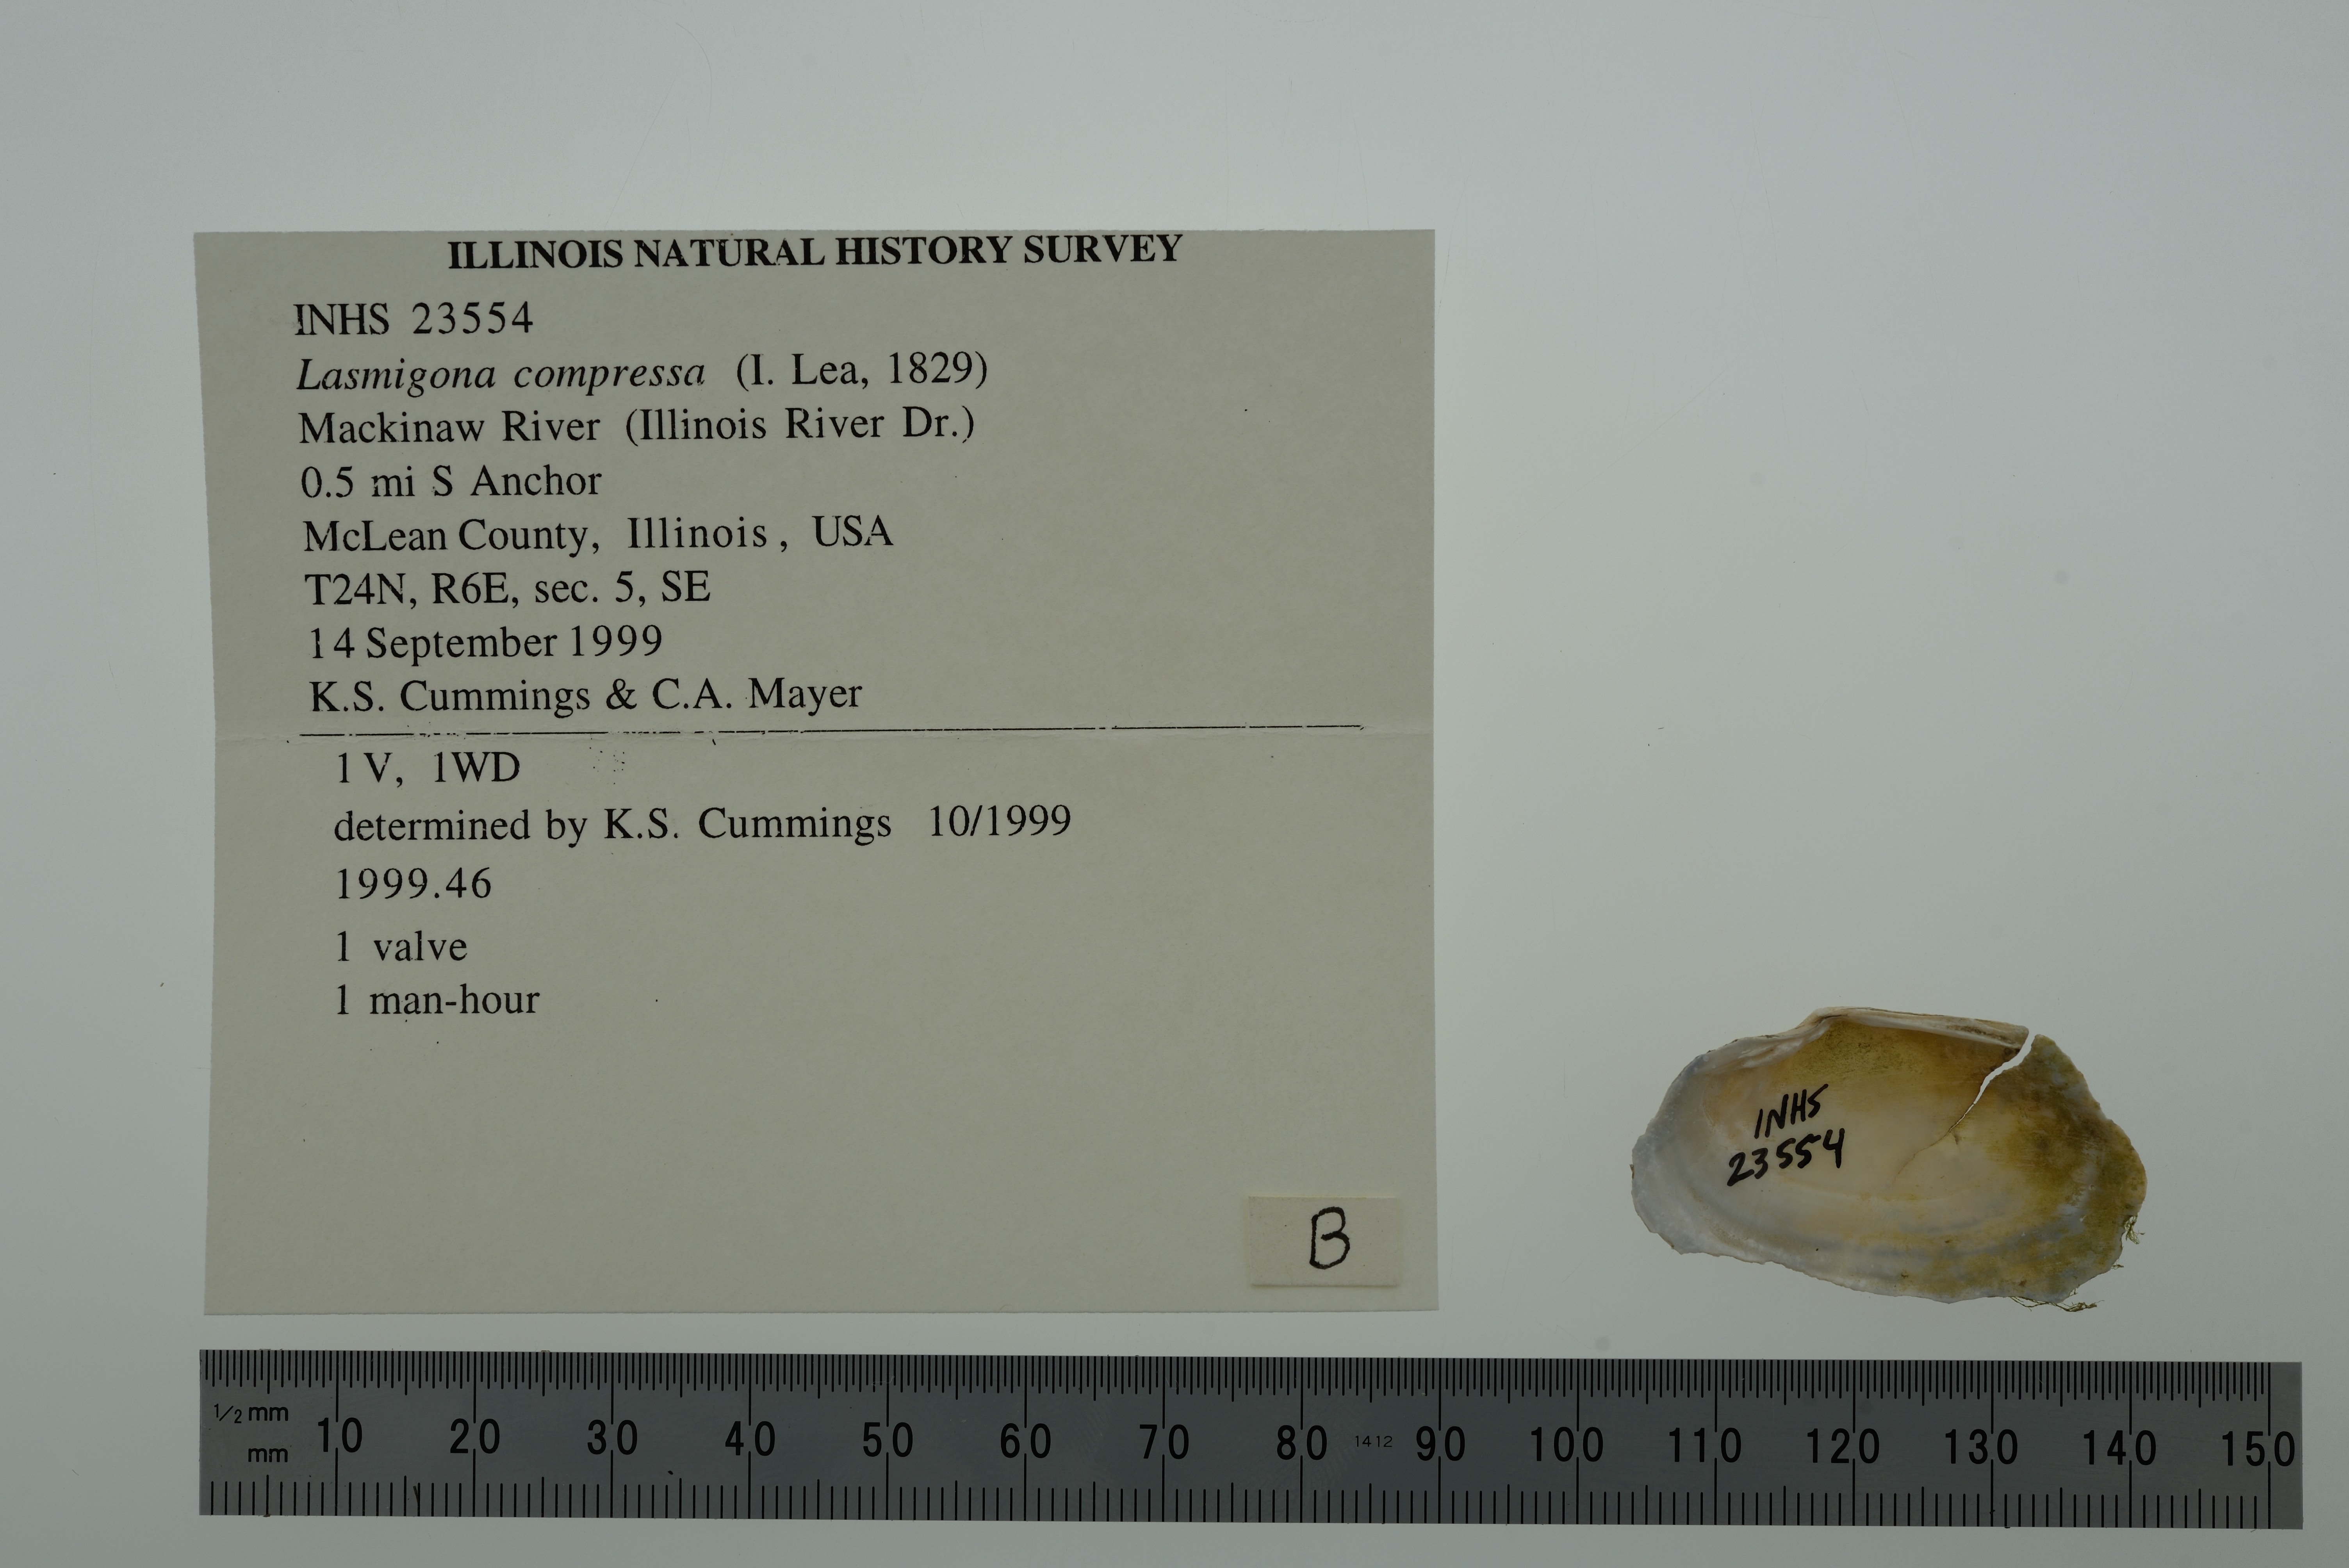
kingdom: Animalia
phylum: Mollusca
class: Bivalvia
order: Unionida
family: Unionidae
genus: Lasmigona
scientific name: Lasmigona compressa
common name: Creek heelsplitter
